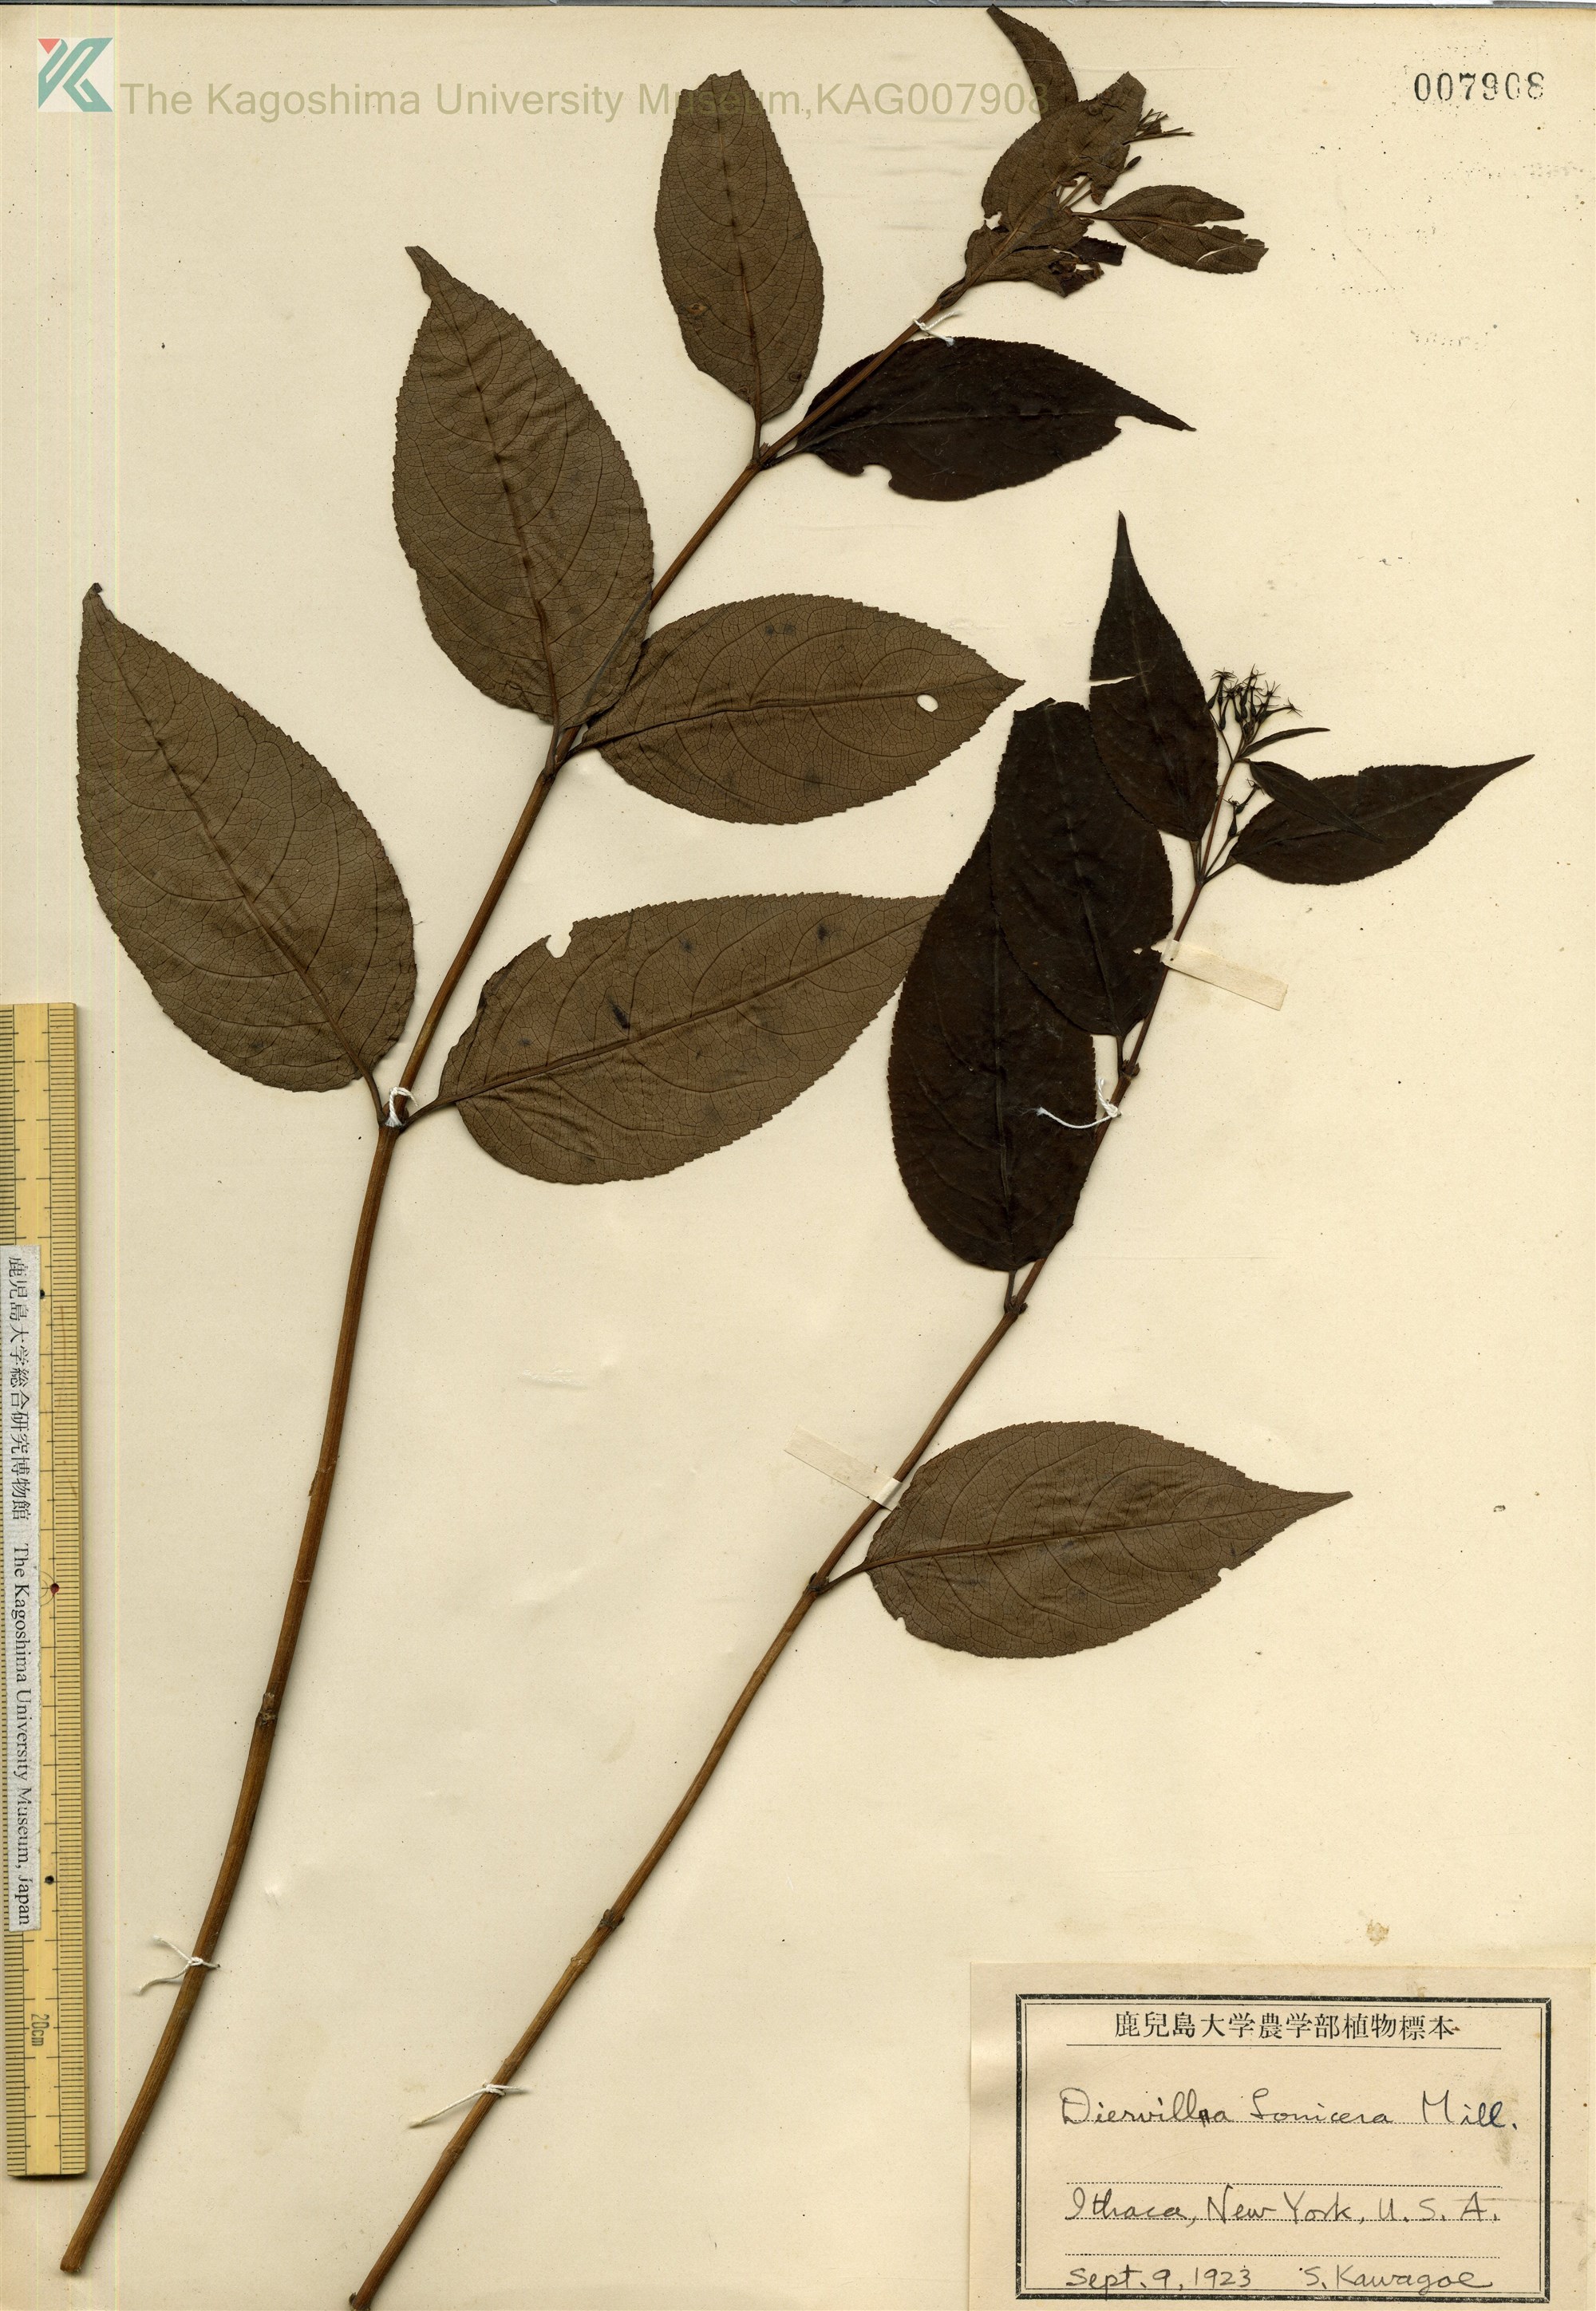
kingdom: Plantae
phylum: Tracheophyta
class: Magnoliopsida
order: Dipsacales
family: Caprifoliaceae
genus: Diervilla
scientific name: Diervilla
